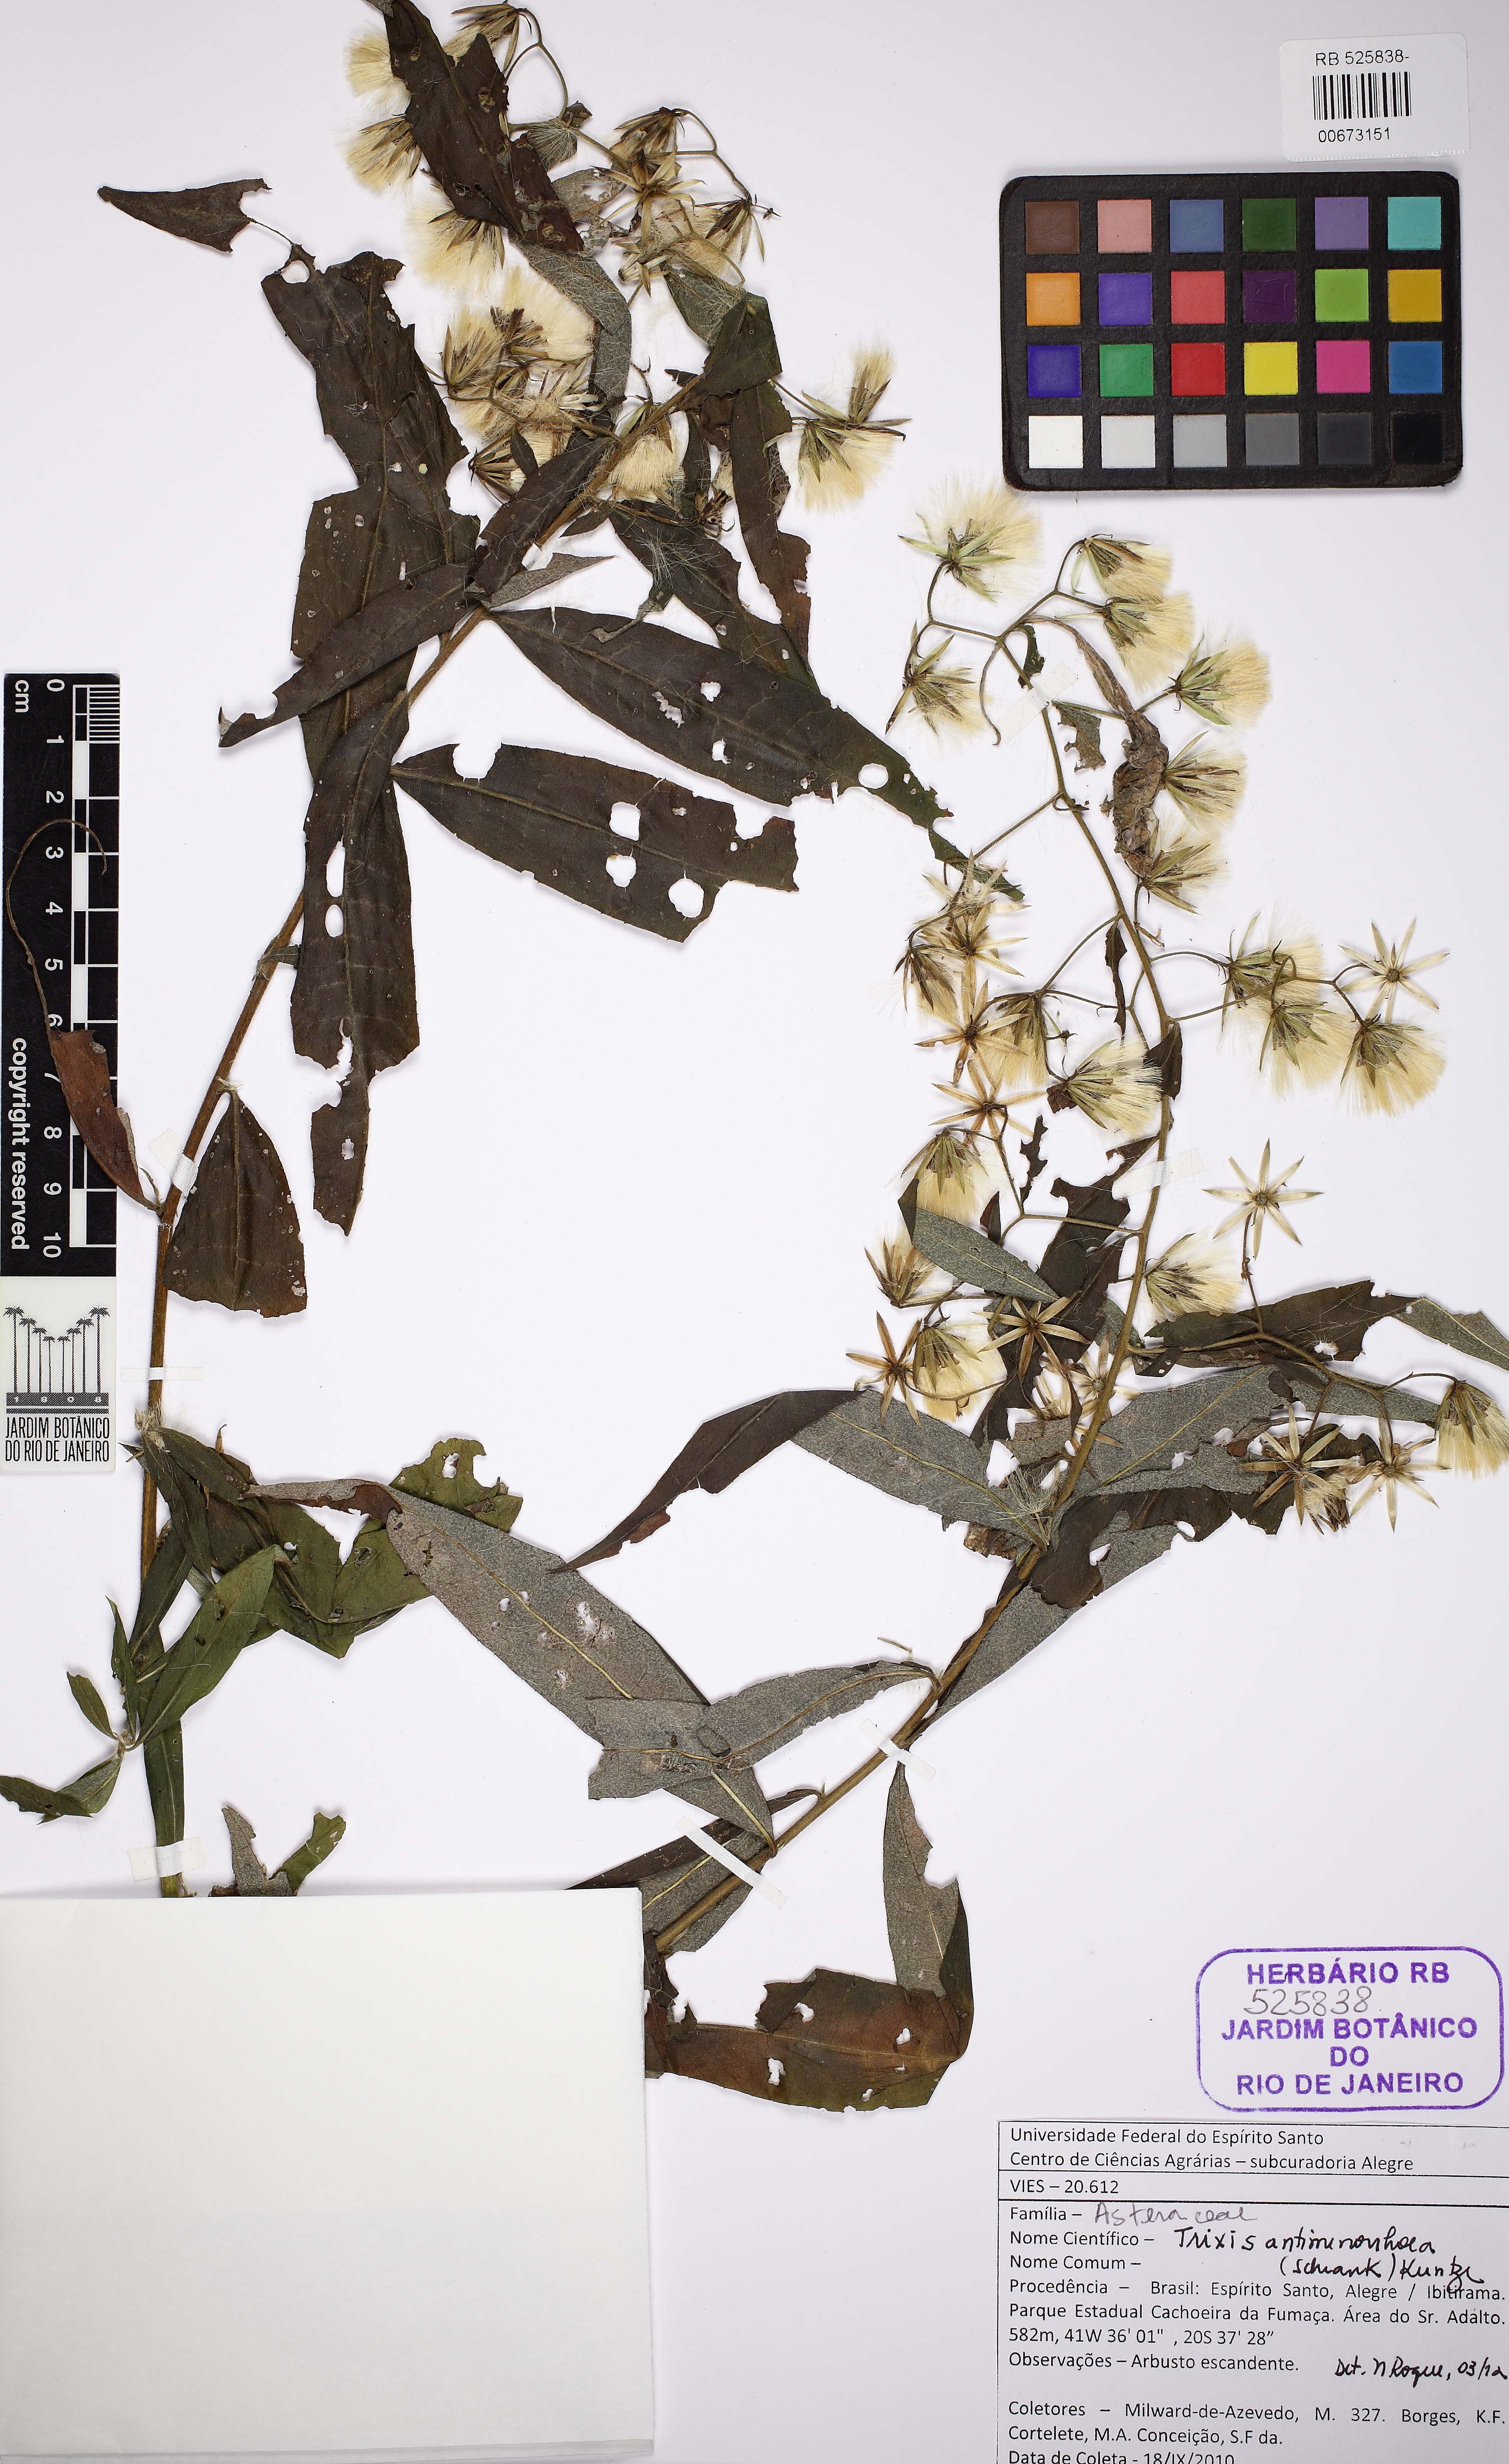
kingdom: Plantae
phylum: Tracheophyta
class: Magnoliopsida
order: Asterales
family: Asteraceae
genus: Trixis
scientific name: Trixis divaricata
